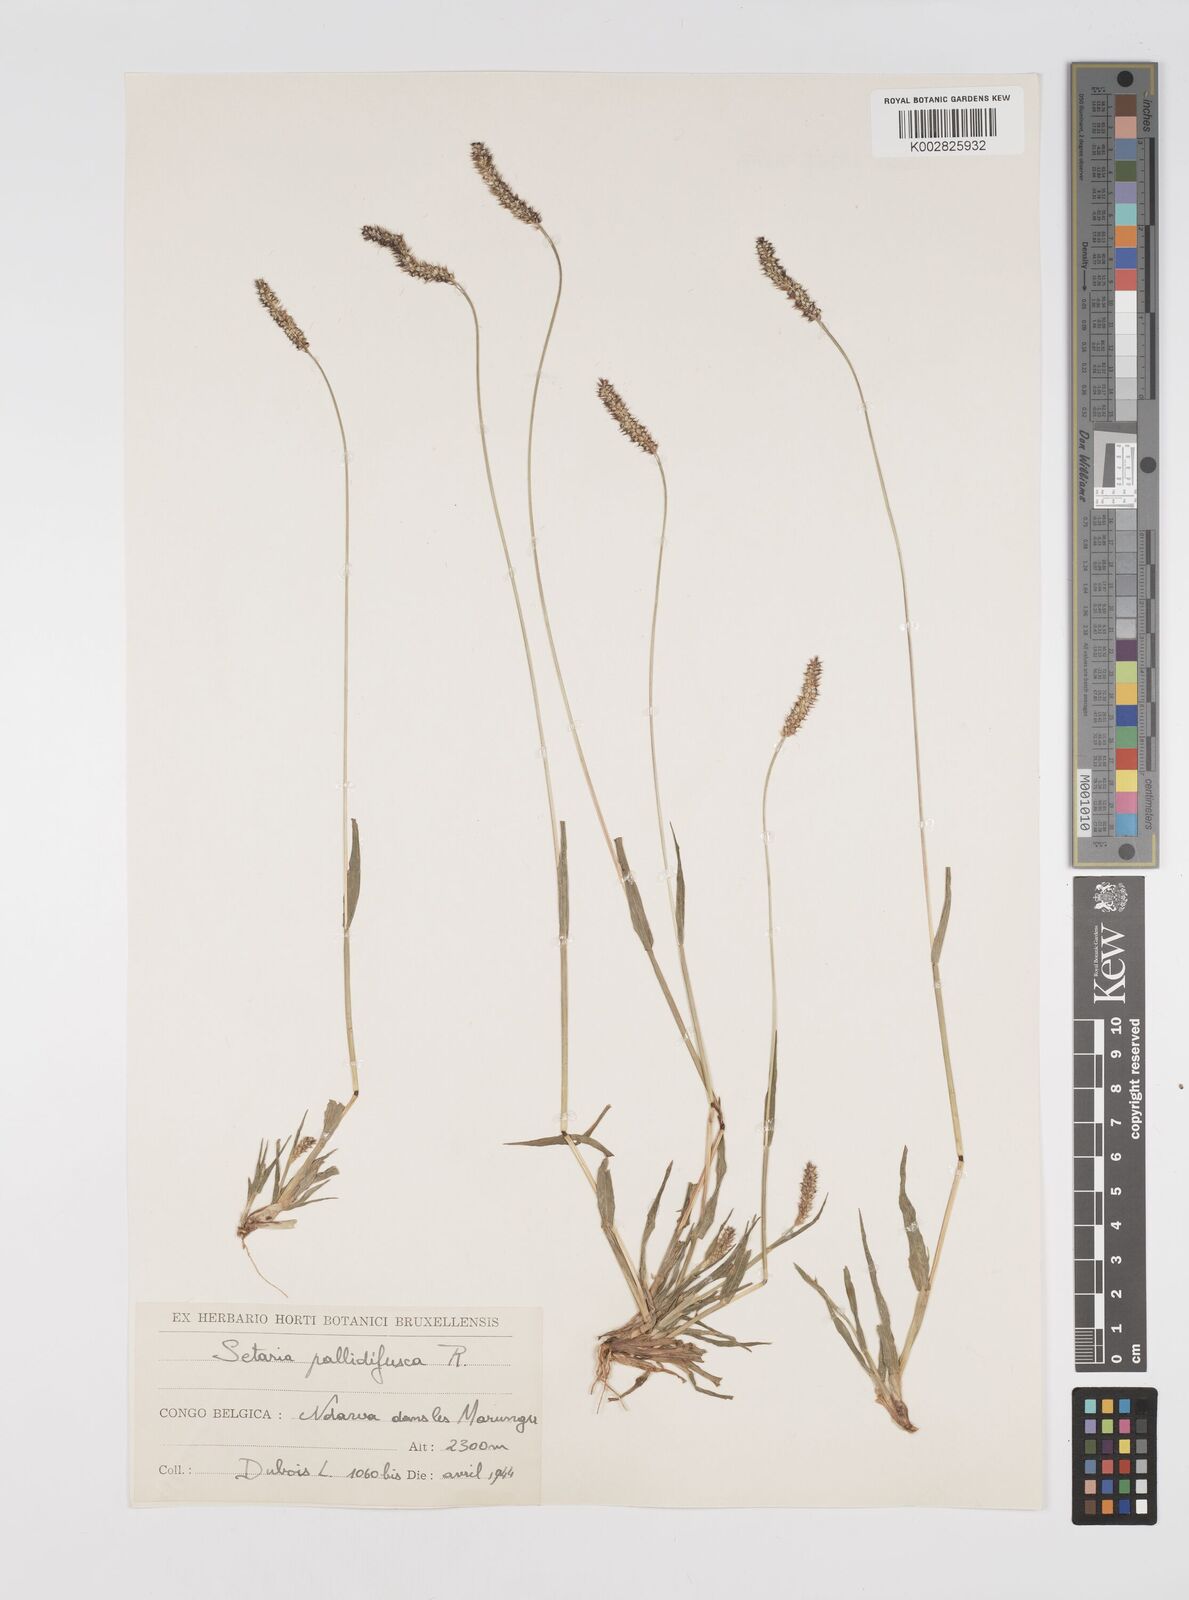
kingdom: Plantae
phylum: Tracheophyta
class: Liliopsida
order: Poales
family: Poaceae
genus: Setaria
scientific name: Setaria pumila
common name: Yellow bristle-grass
